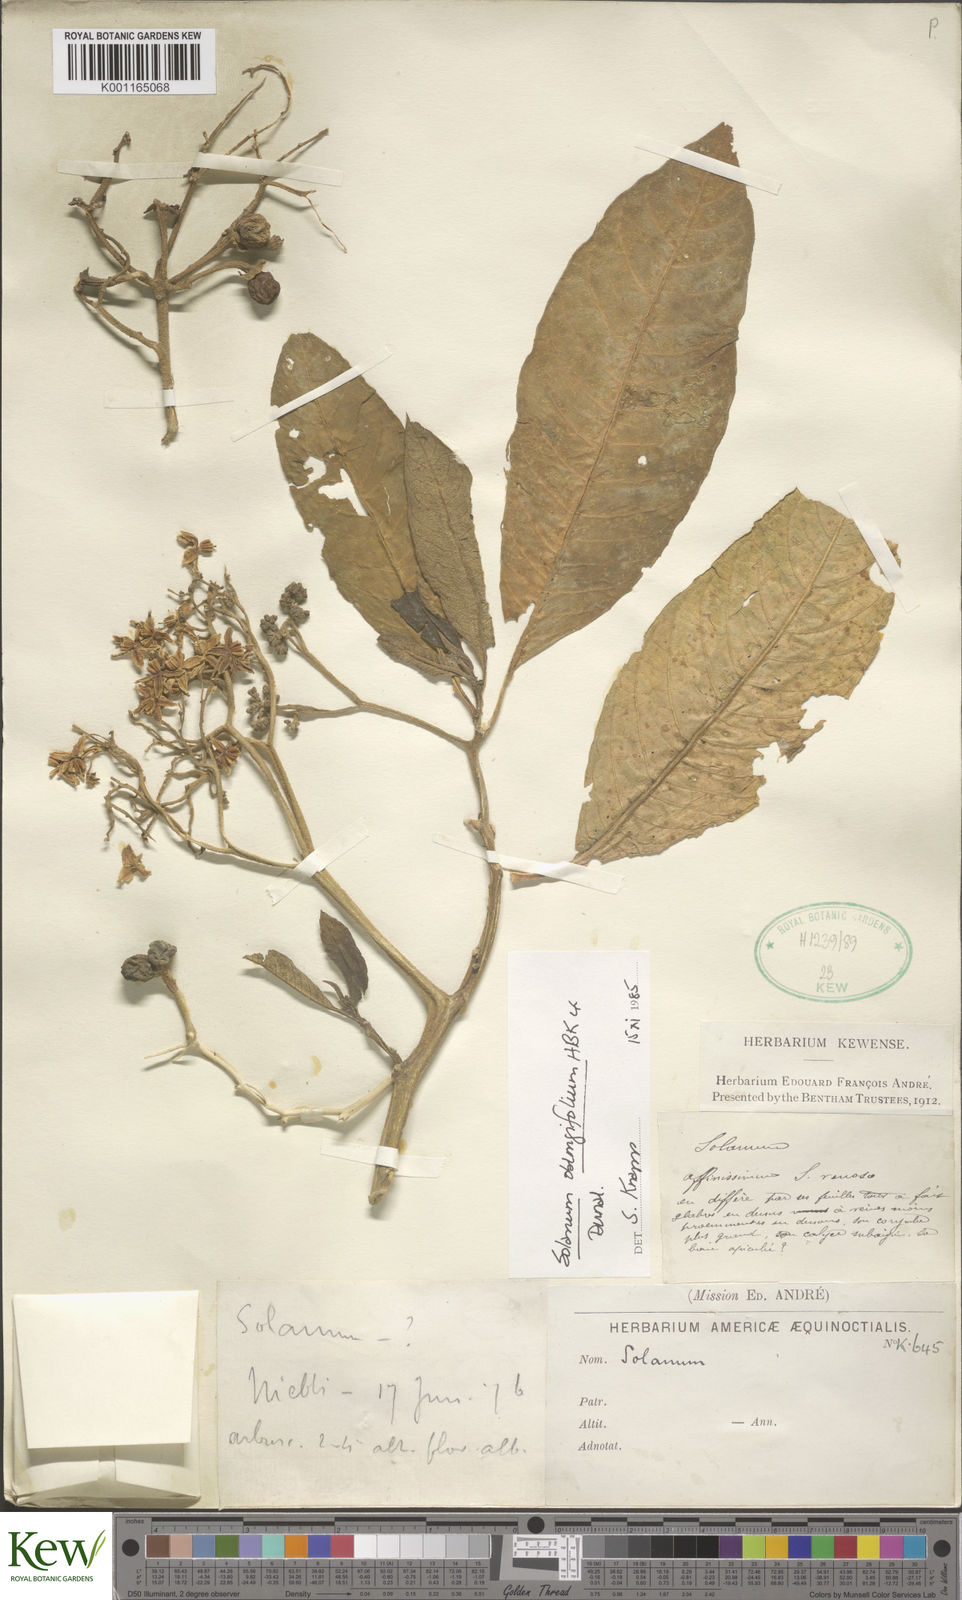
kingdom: Plantae
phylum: Tracheophyta
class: Magnoliopsida
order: Solanales
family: Solanaceae
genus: Solanum
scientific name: Solanum oblongifolium
